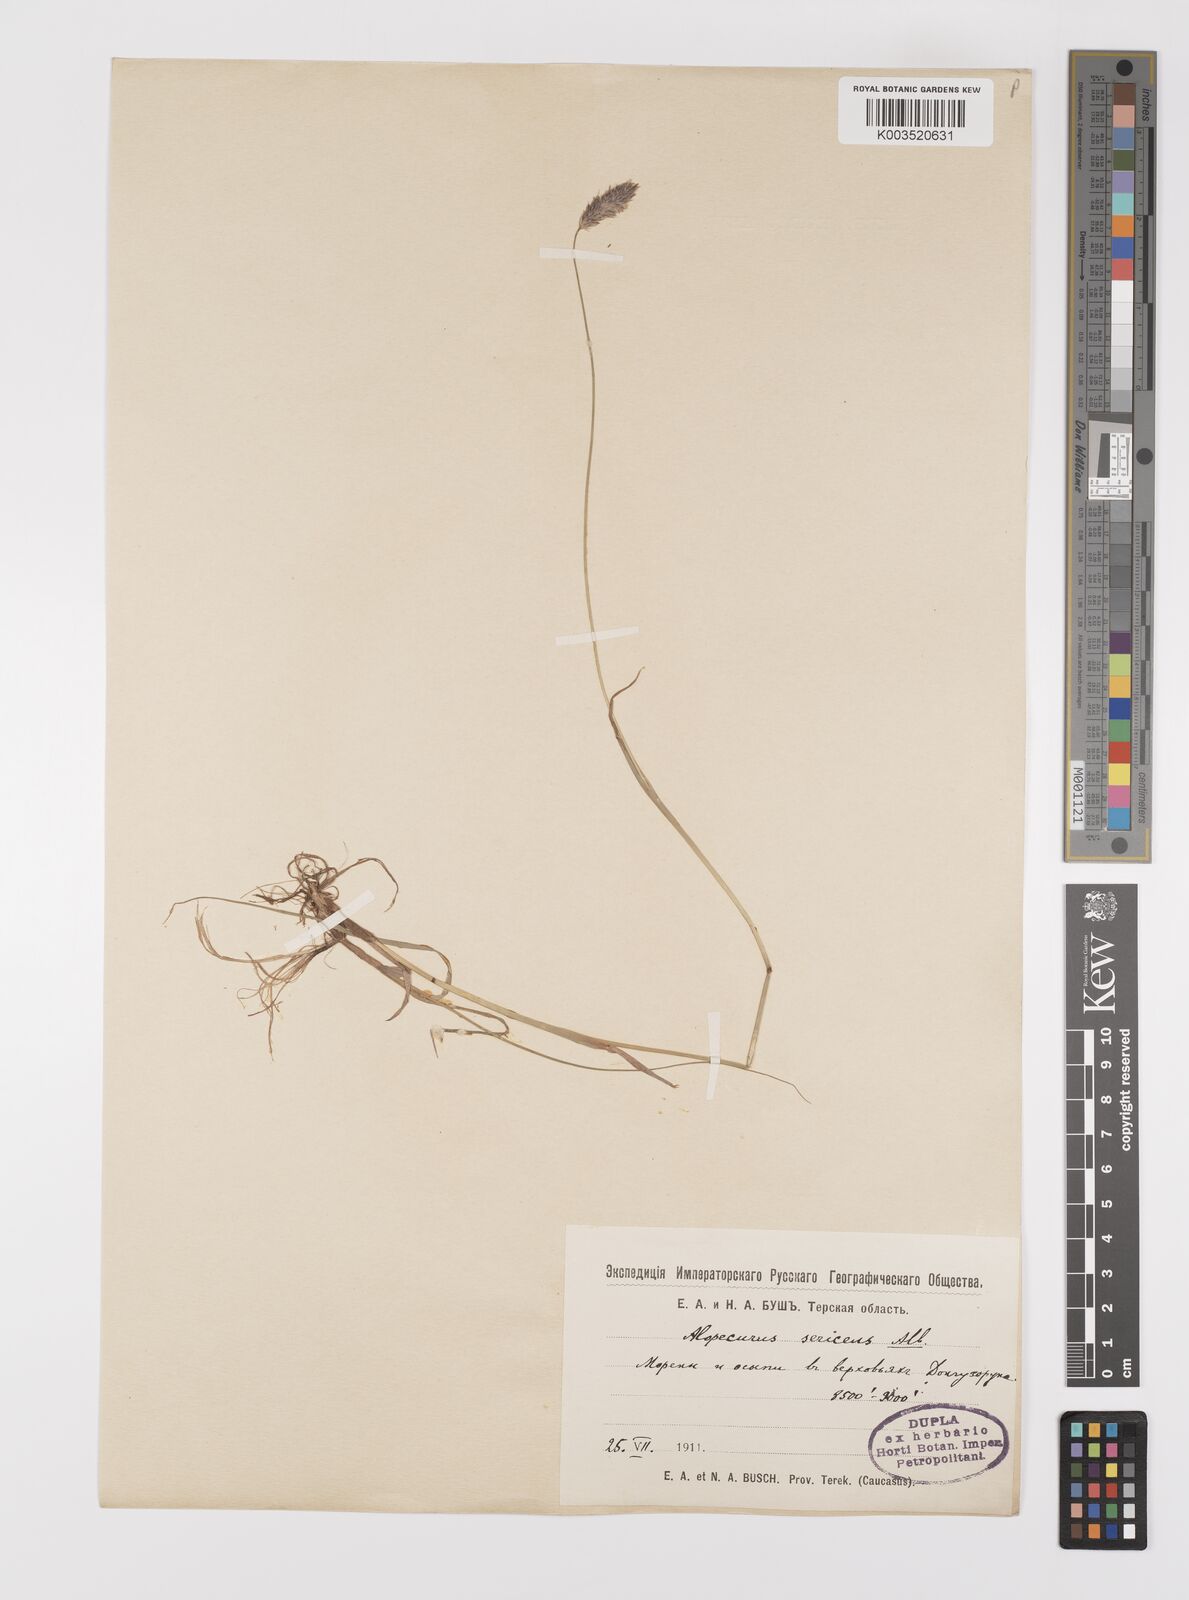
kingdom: Plantae
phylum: Tracheophyta
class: Liliopsida
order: Poales
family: Poaceae
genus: Alopecurus
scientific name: Alopecurus ponticus
